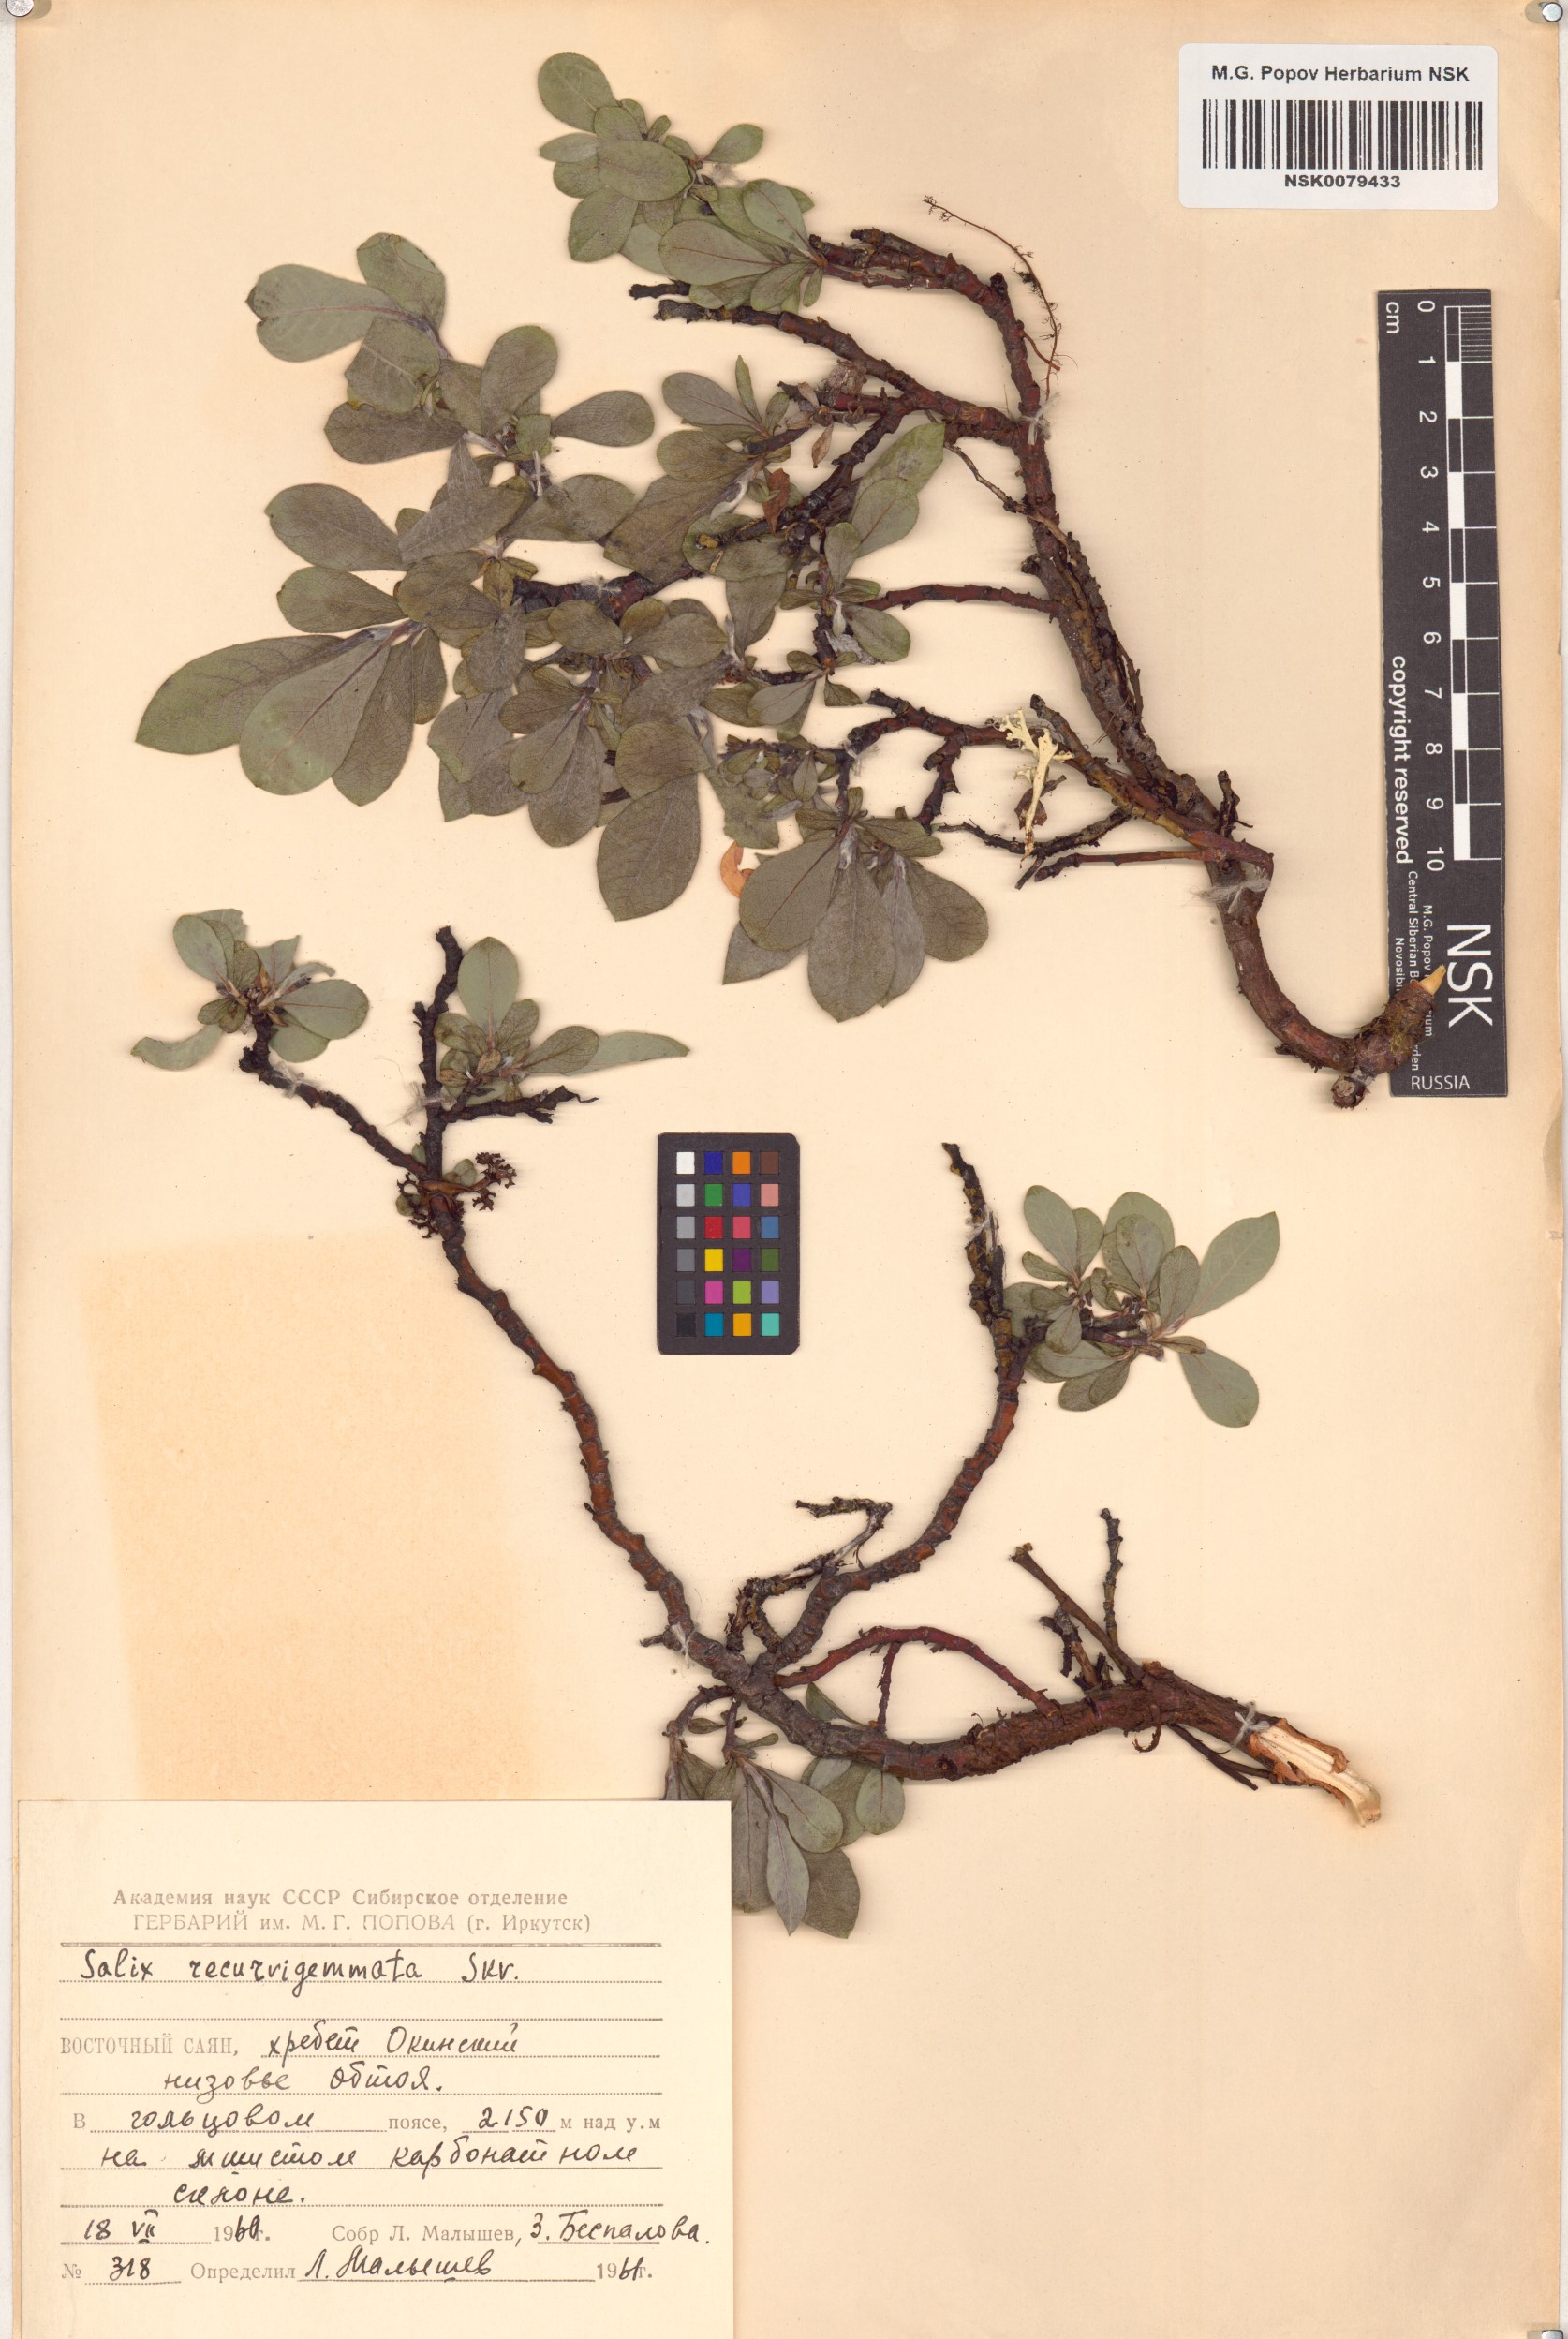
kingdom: Plantae
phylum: Tracheophyta
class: Magnoliopsida
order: Malpighiales
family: Salicaceae
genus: Salix
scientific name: Salix recurvigemmata
